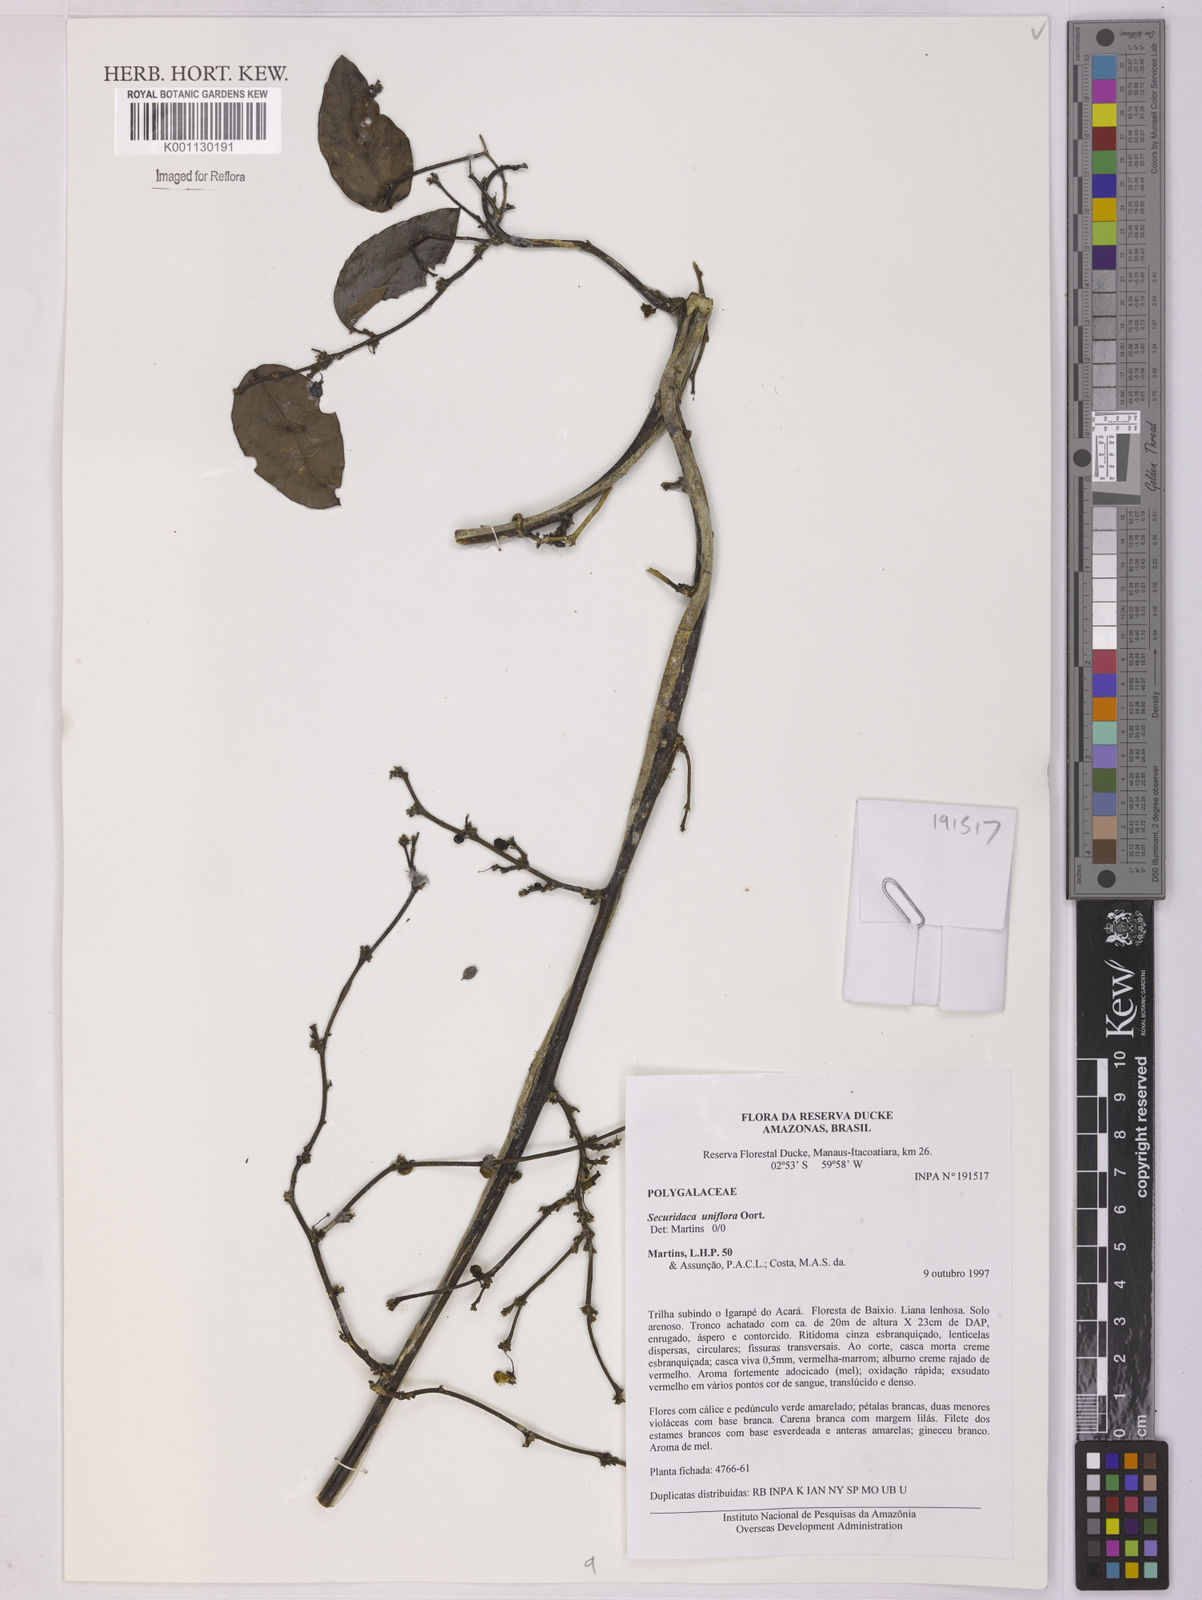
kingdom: Plantae
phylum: Tracheophyta
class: Magnoliopsida
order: Fabales
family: Polygalaceae
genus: Securidaca
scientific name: Securidaca uniflora
